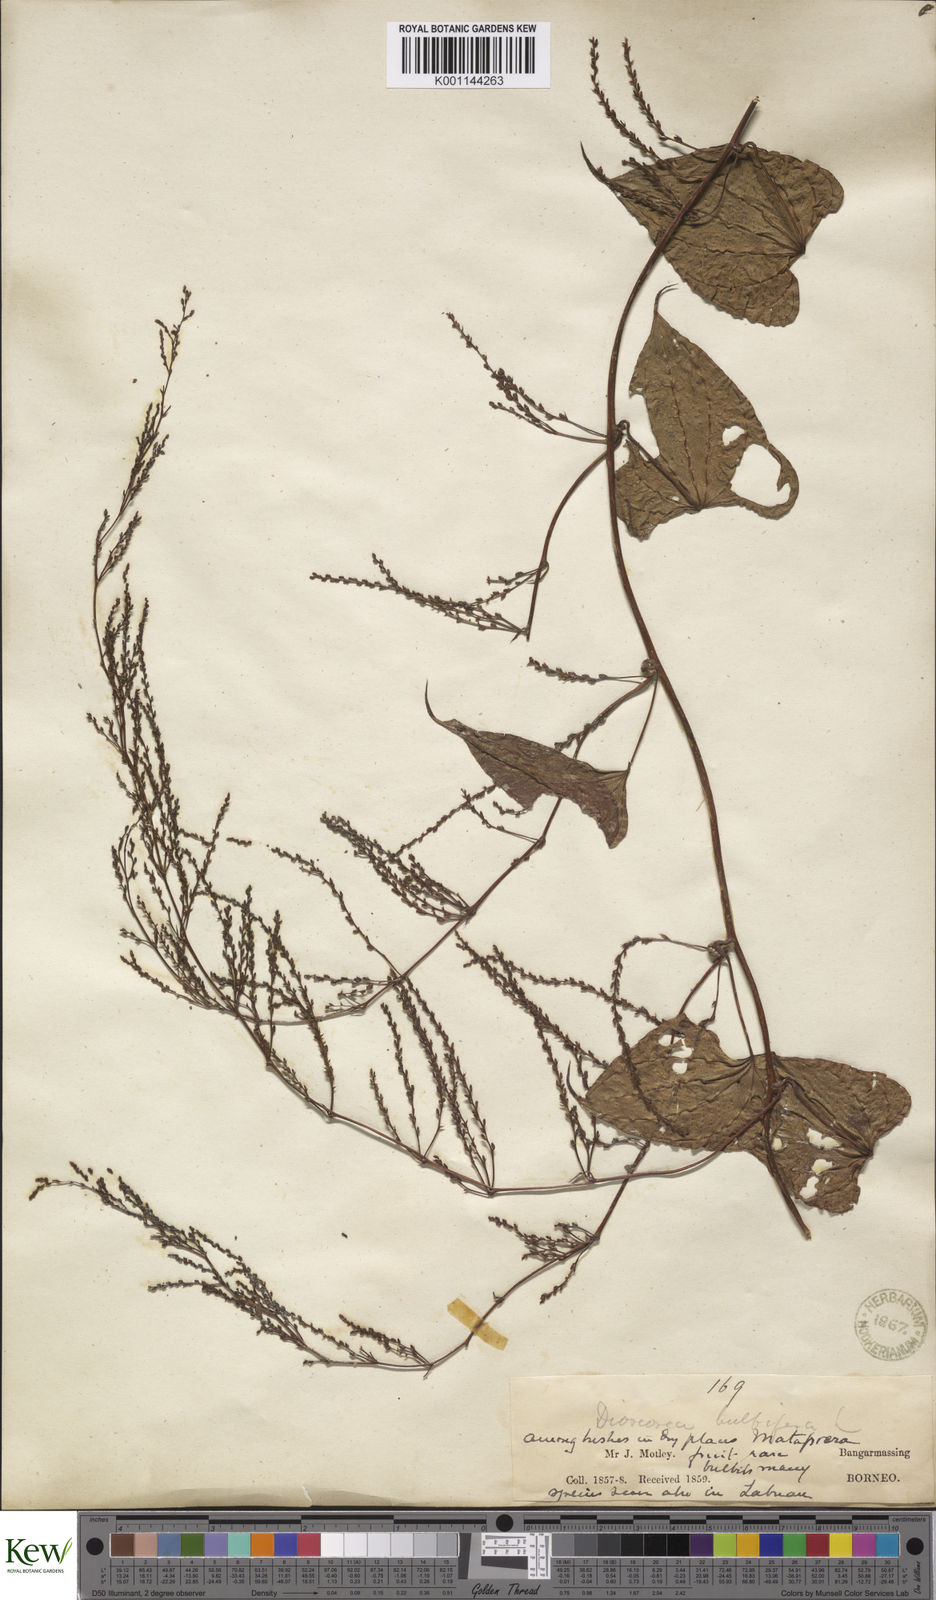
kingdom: Plantae
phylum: Tracheophyta
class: Liliopsida
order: Dioscoreales
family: Dioscoreaceae
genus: Dioscorea
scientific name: Dioscorea bulbifera
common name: Air yam
